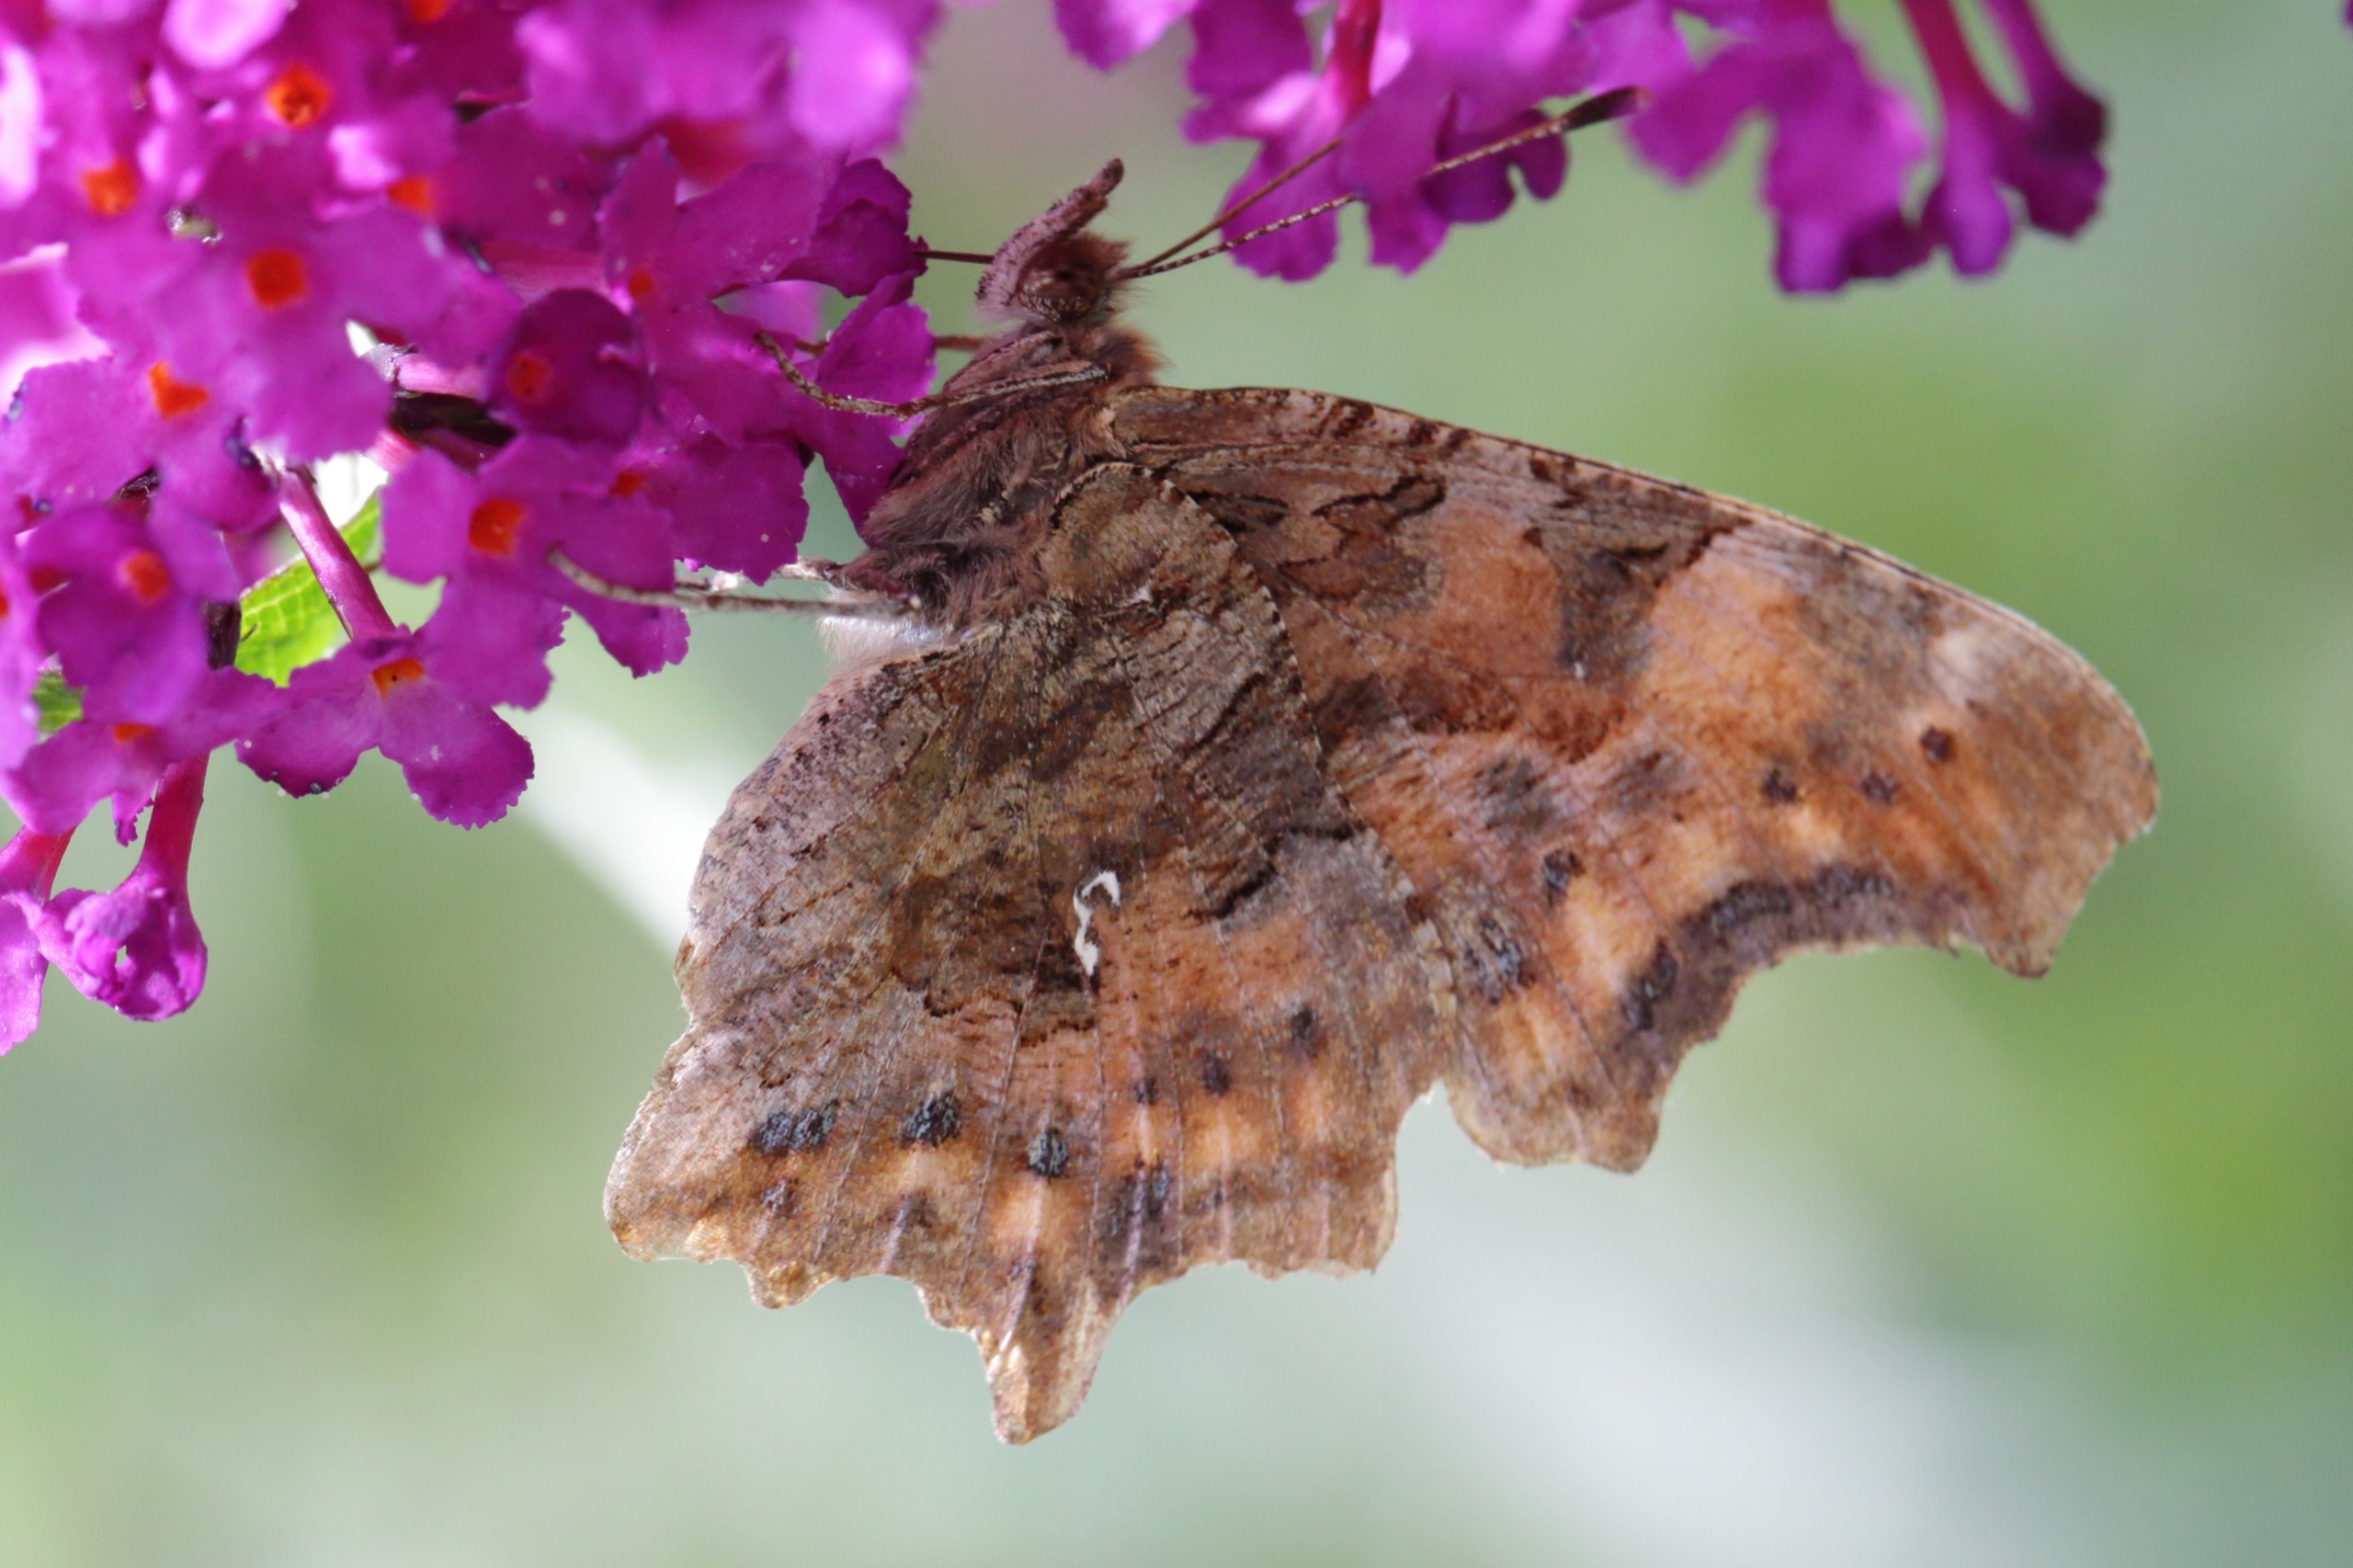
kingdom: Animalia
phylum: Arthropoda
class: Insecta
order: Lepidoptera
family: Nymphalidae
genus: Polygonia
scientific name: Polygonia c-album
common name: Det hvide C
